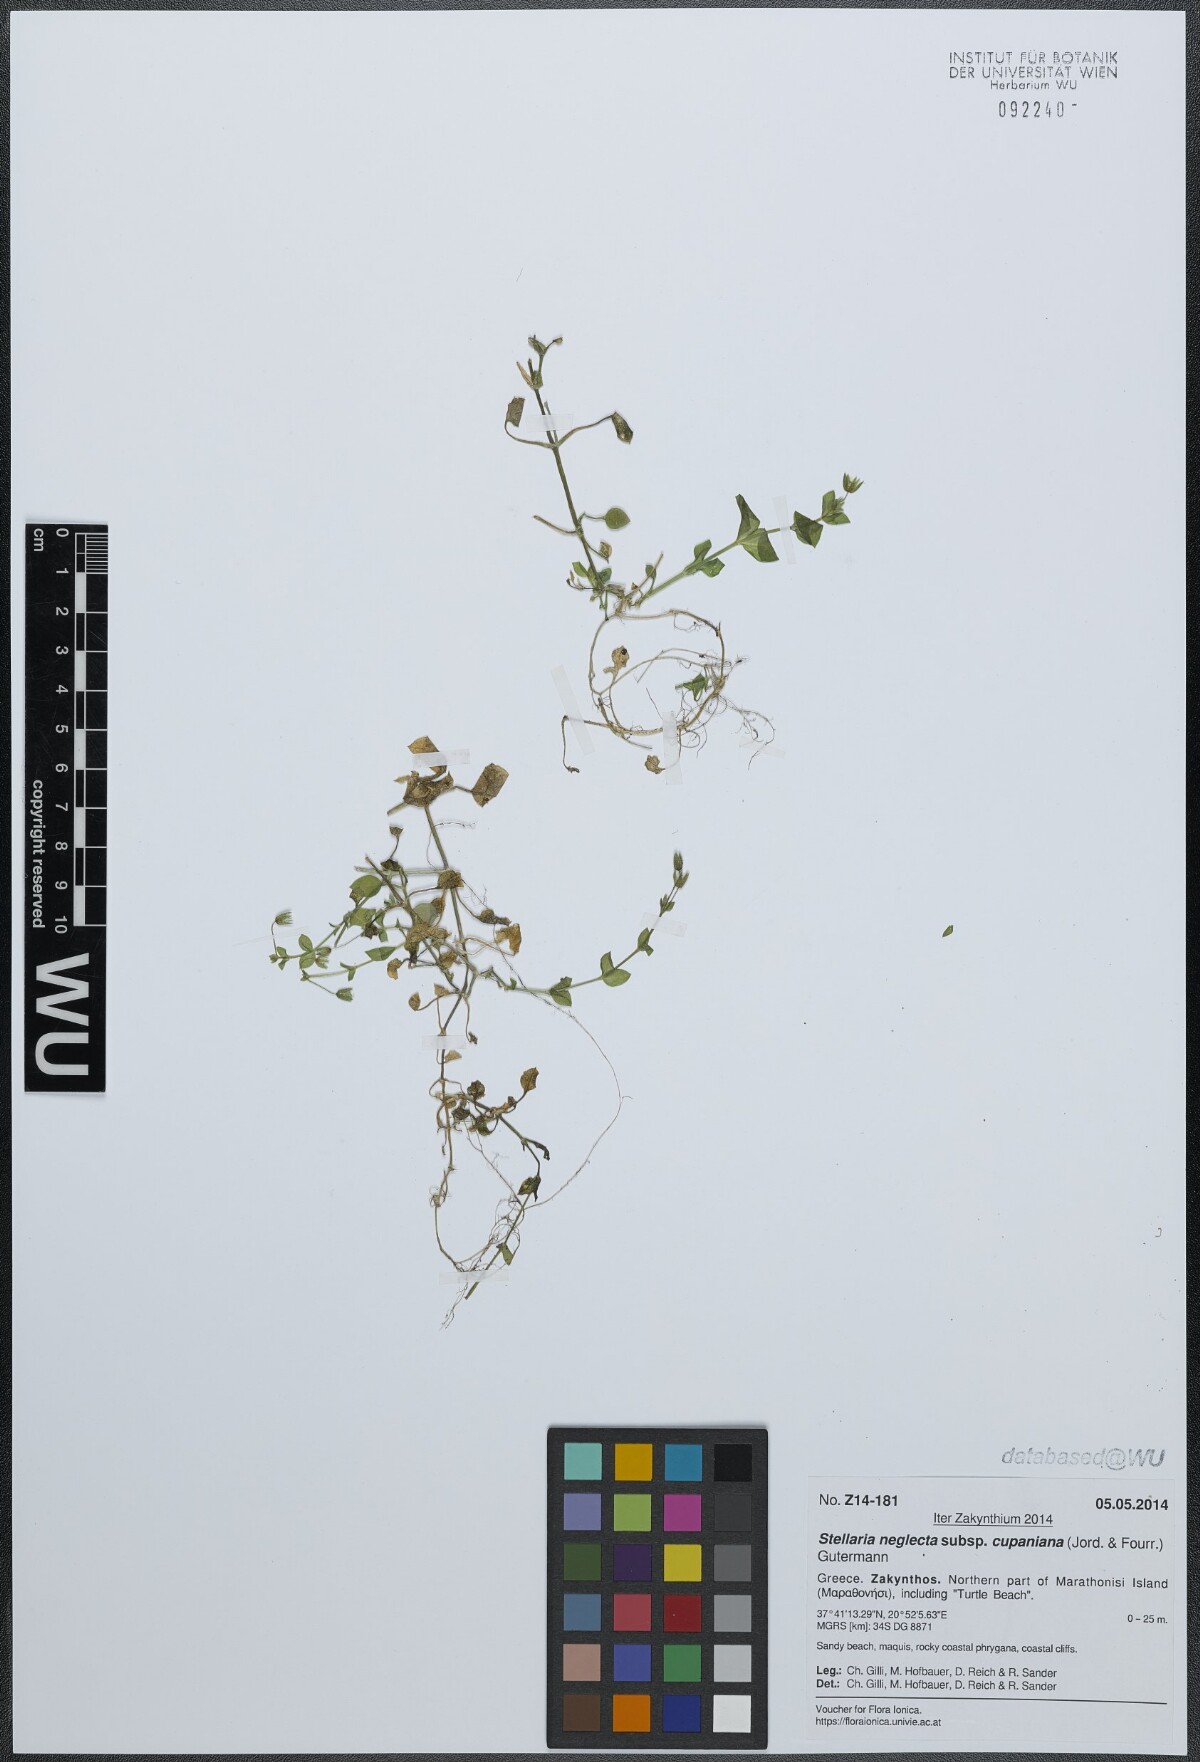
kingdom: Plantae
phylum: Tracheophyta
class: Magnoliopsida
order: Caryophyllales
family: Caryophyllaceae
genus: Stellaria
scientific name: Stellaria cupaniana
